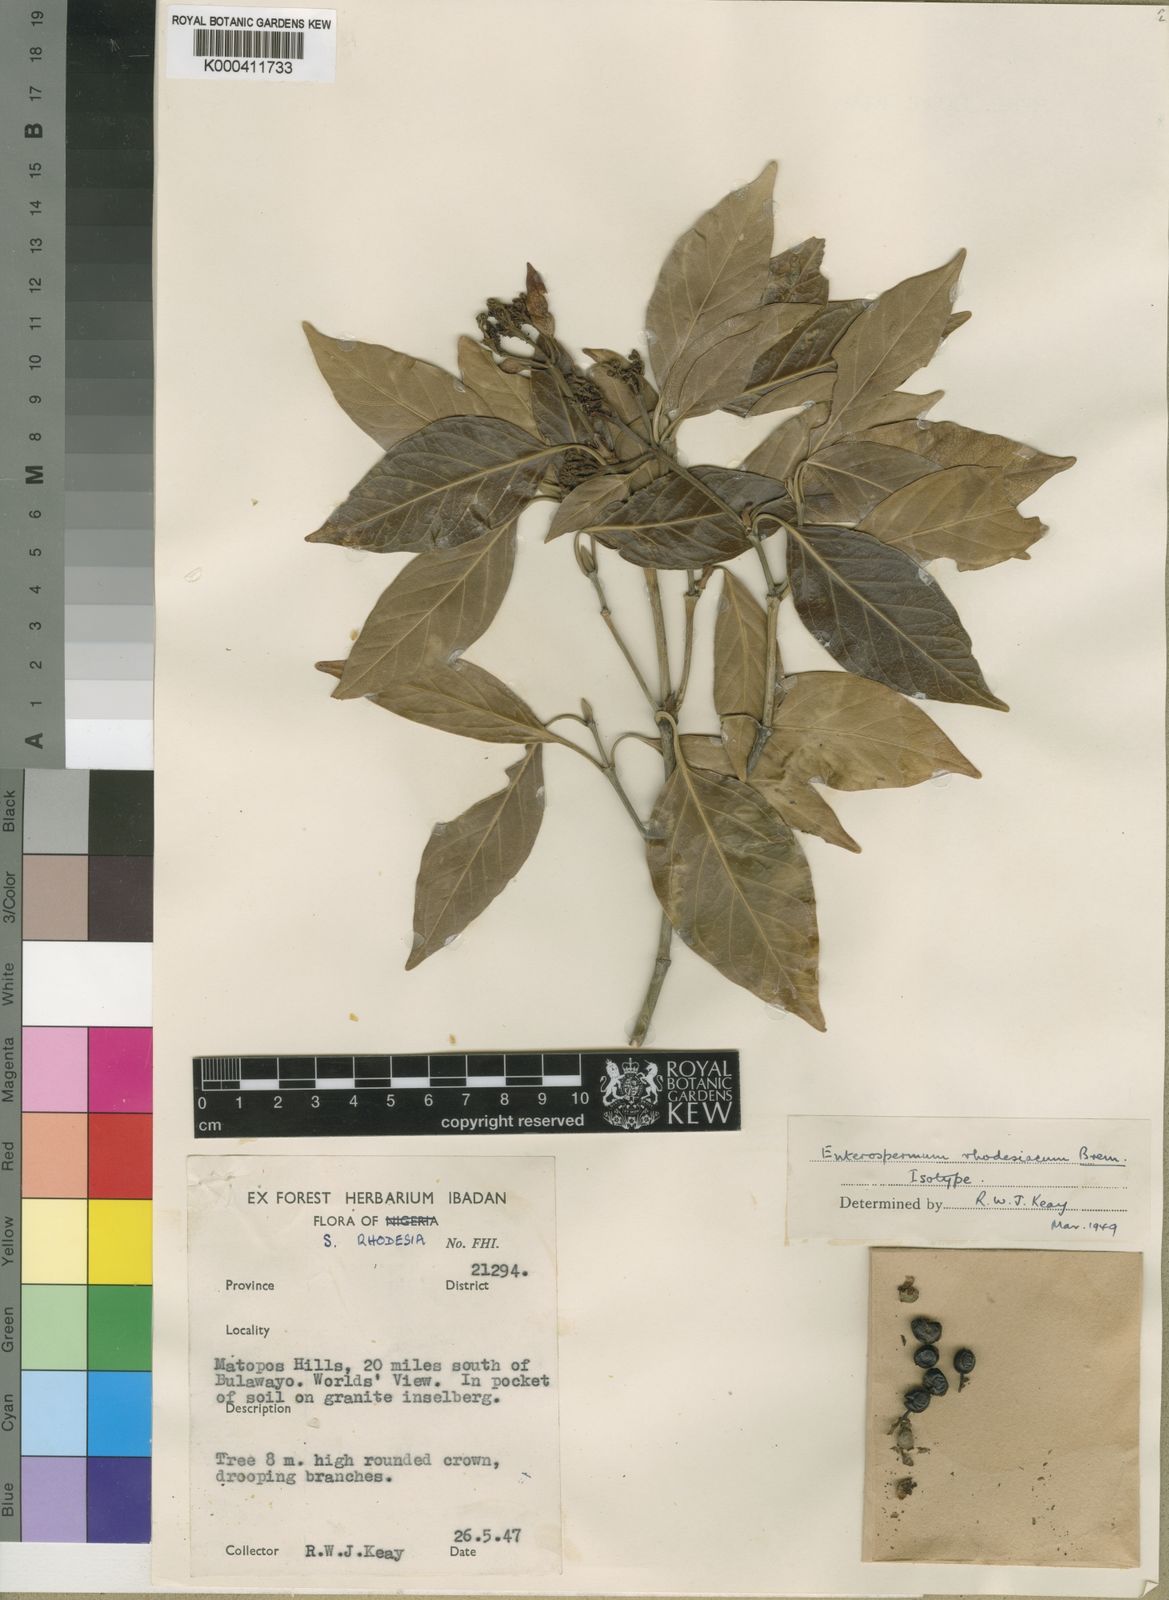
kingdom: Plantae
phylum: Tracheophyta
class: Magnoliopsida
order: Gentianales
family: Rubiaceae
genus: Coptosperma
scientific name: Coptosperma rhodesiacum
